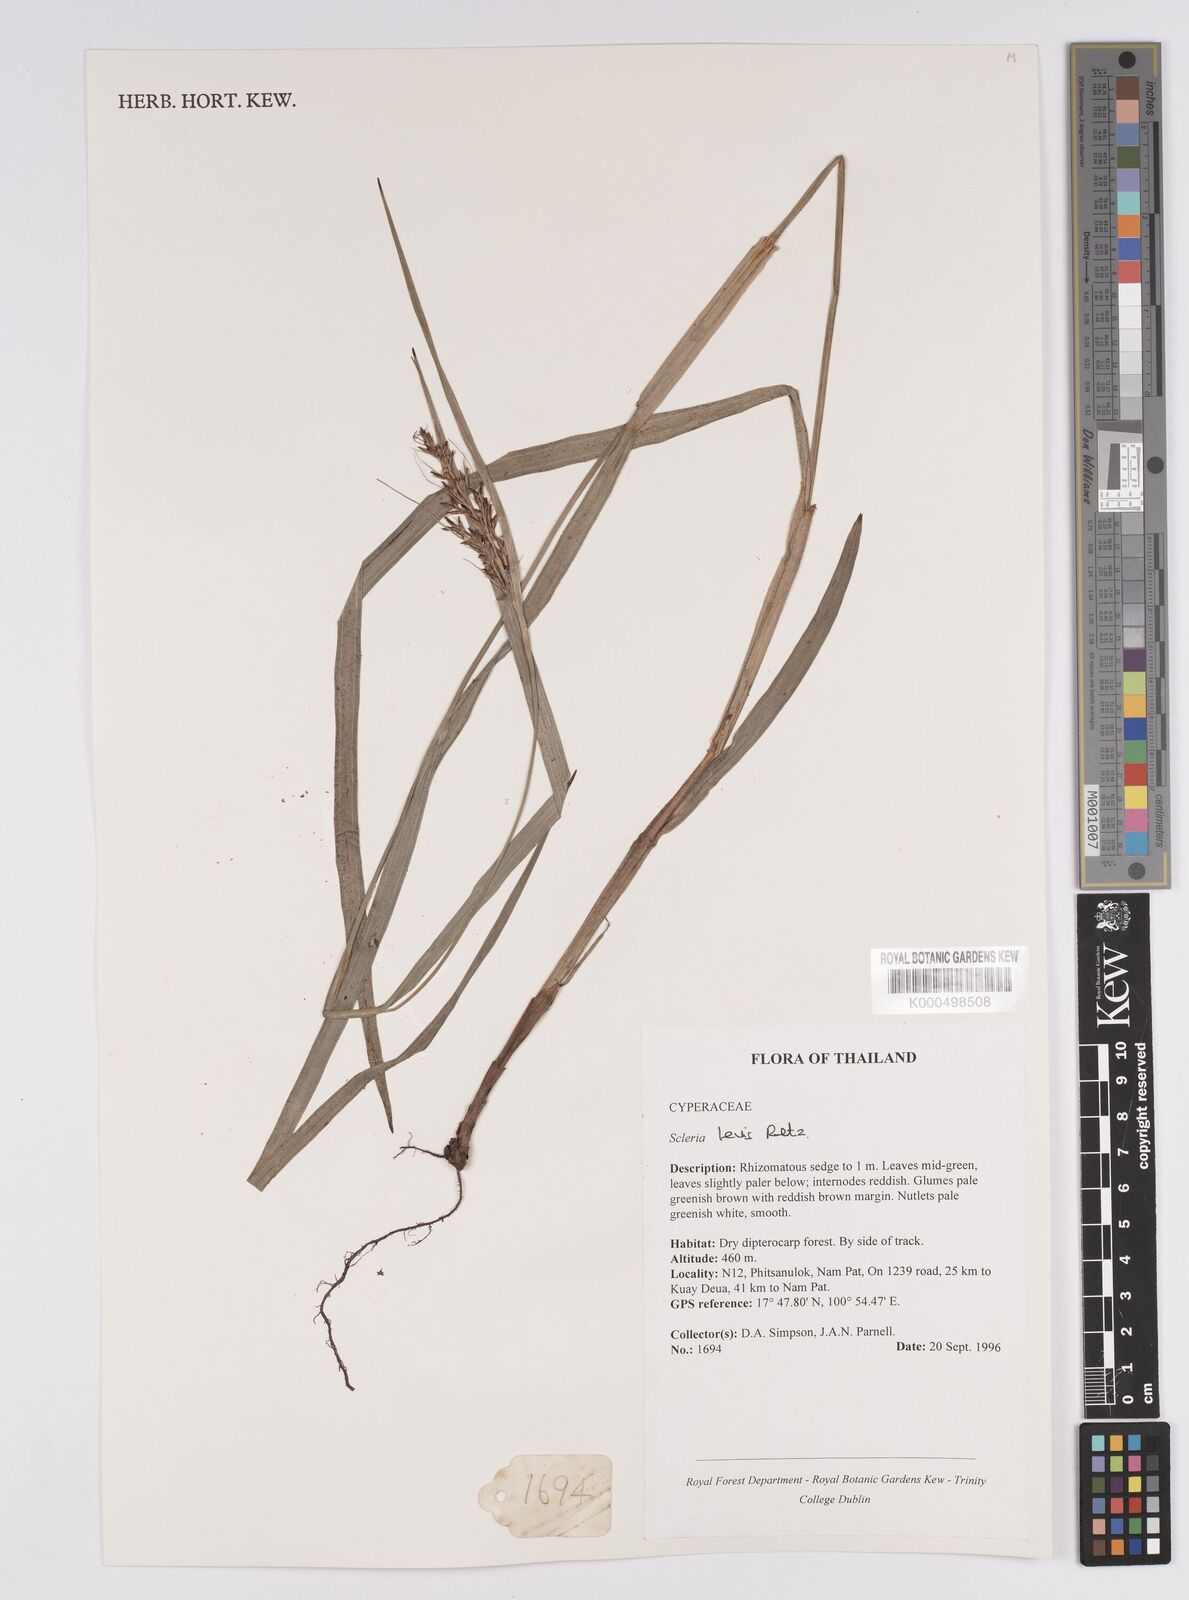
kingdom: Plantae
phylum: Tracheophyta
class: Liliopsida
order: Poales
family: Cyperaceae
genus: Scleria
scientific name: Scleria levis
